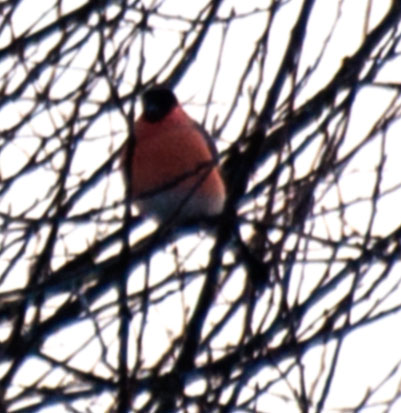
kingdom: Animalia
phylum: Chordata
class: Aves
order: Passeriformes
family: Fringillidae
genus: Pyrrhula
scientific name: Pyrrhula pyrrhula
